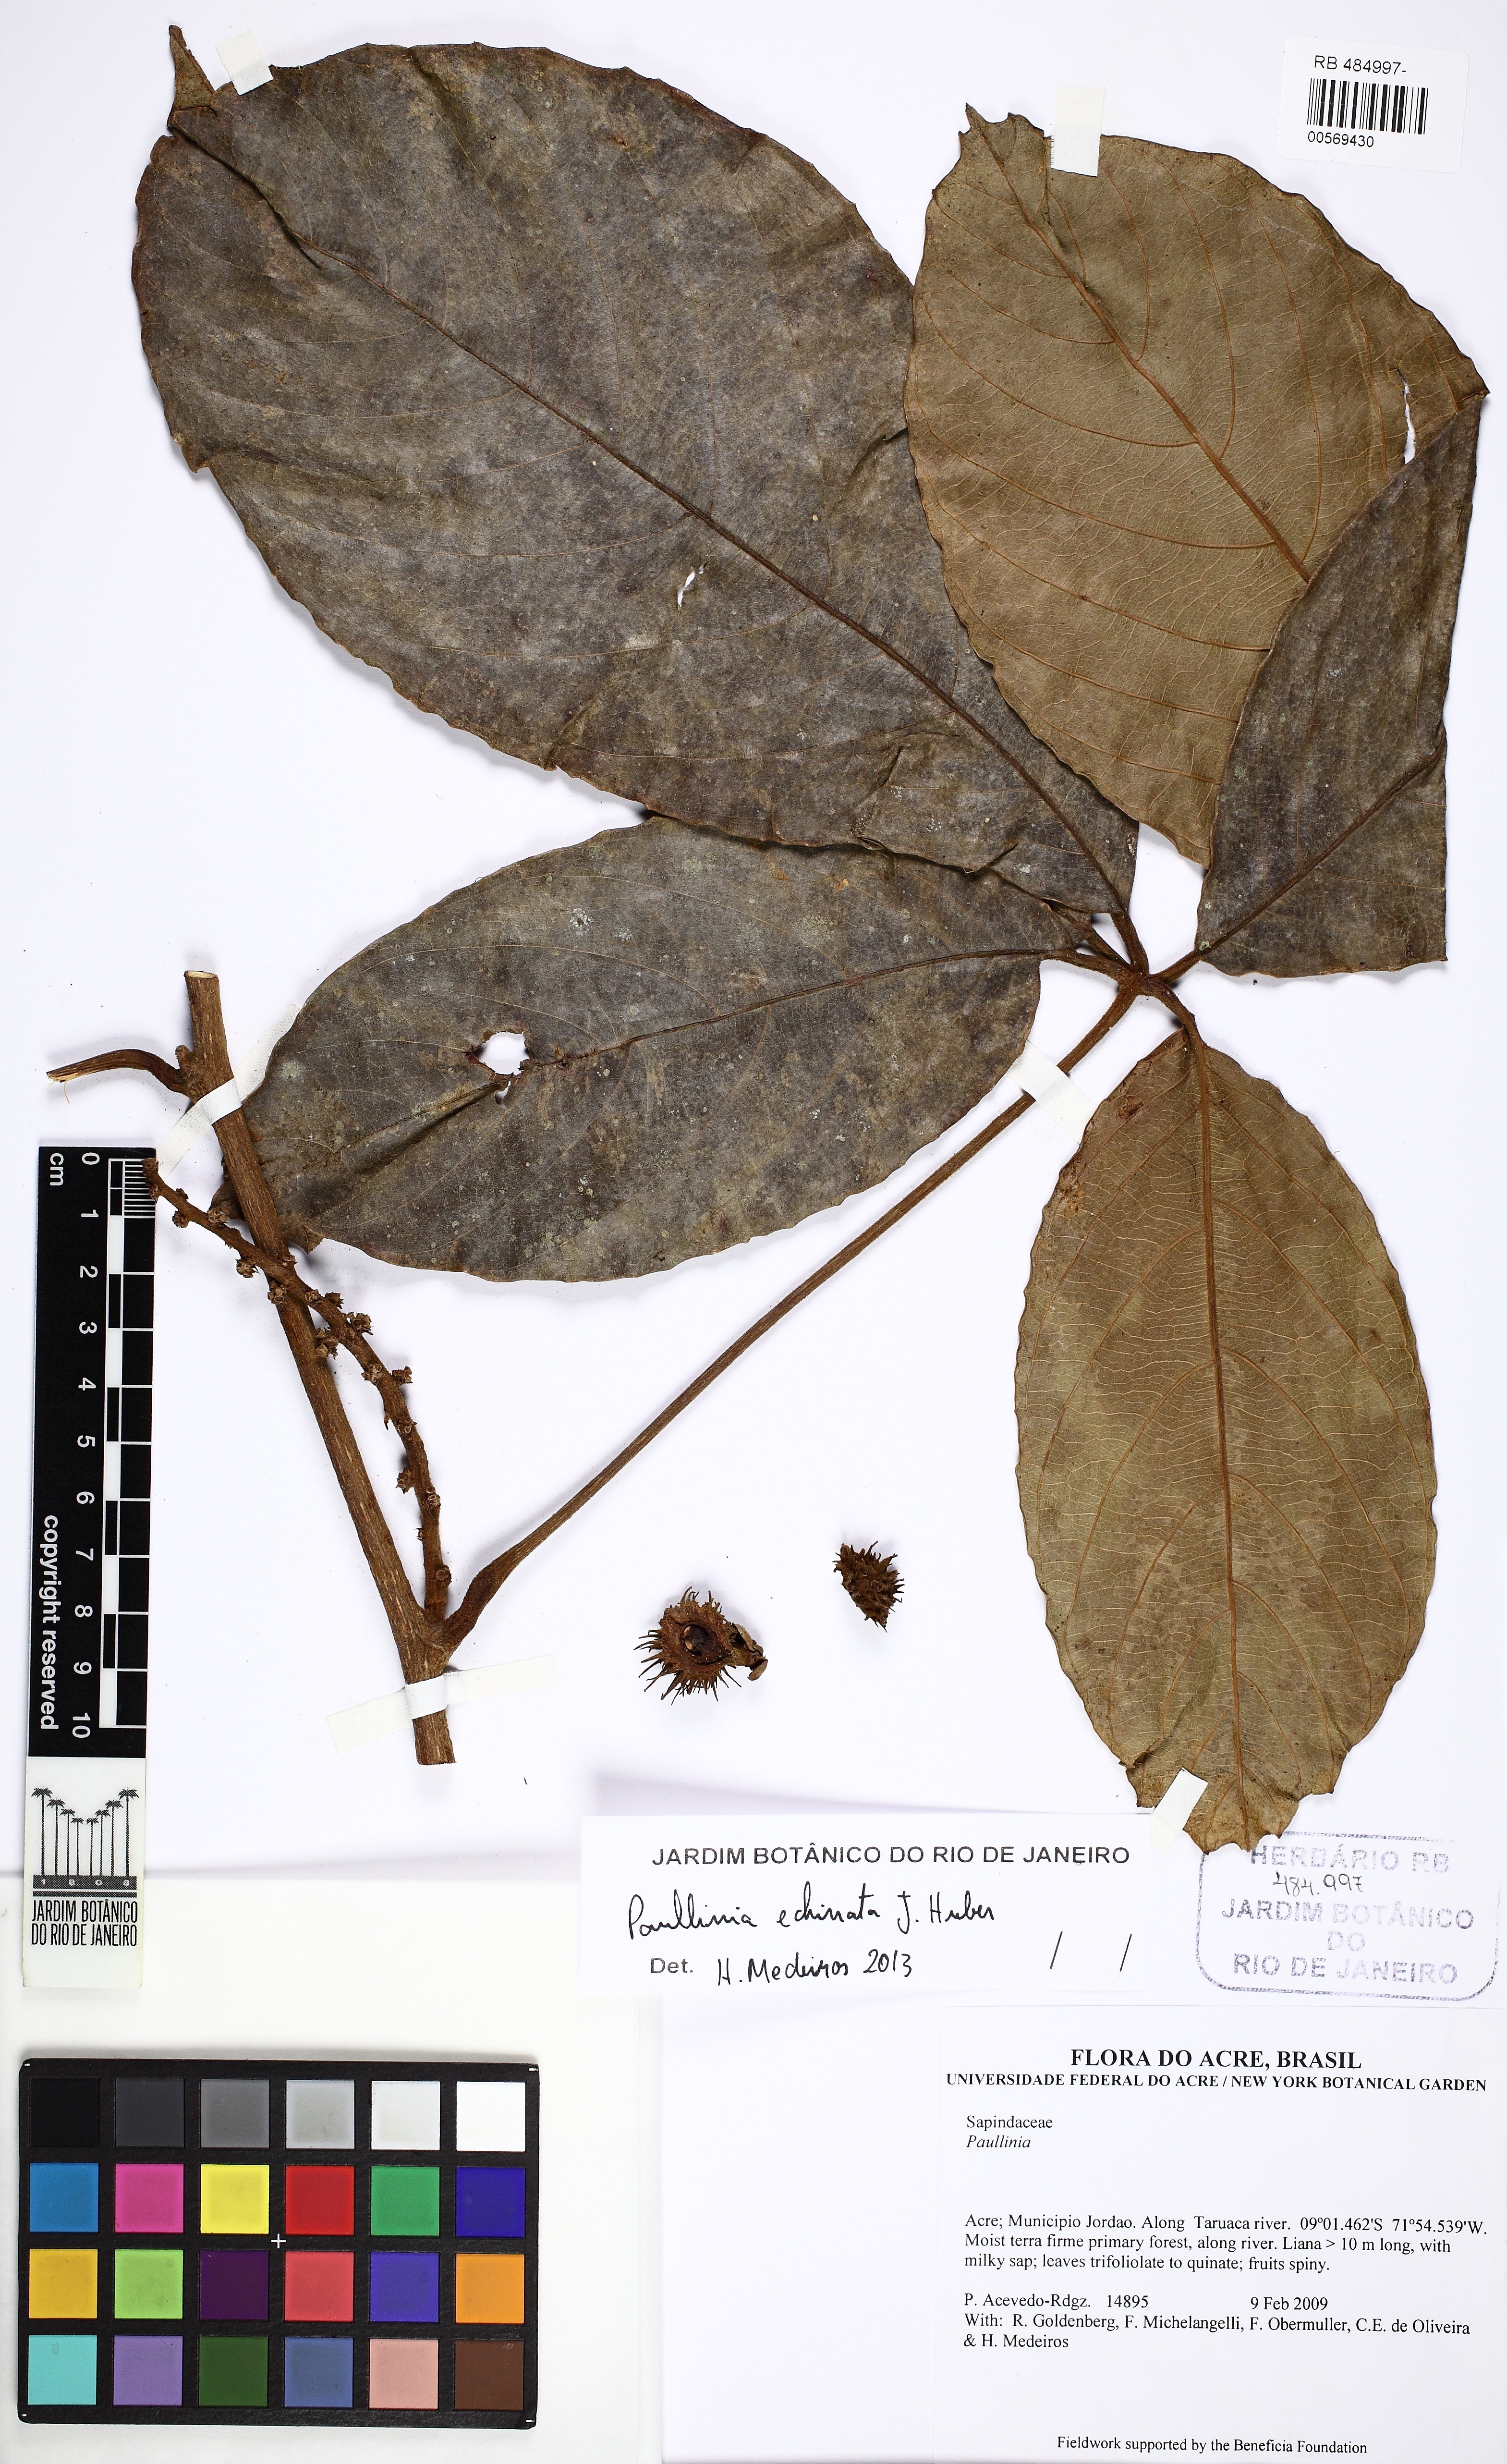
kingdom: Plantae
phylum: Tracheophyta
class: Magnoliopsida
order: Sapindales
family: Sapindaceae
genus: Paullinia
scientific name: Paullinia echinata
